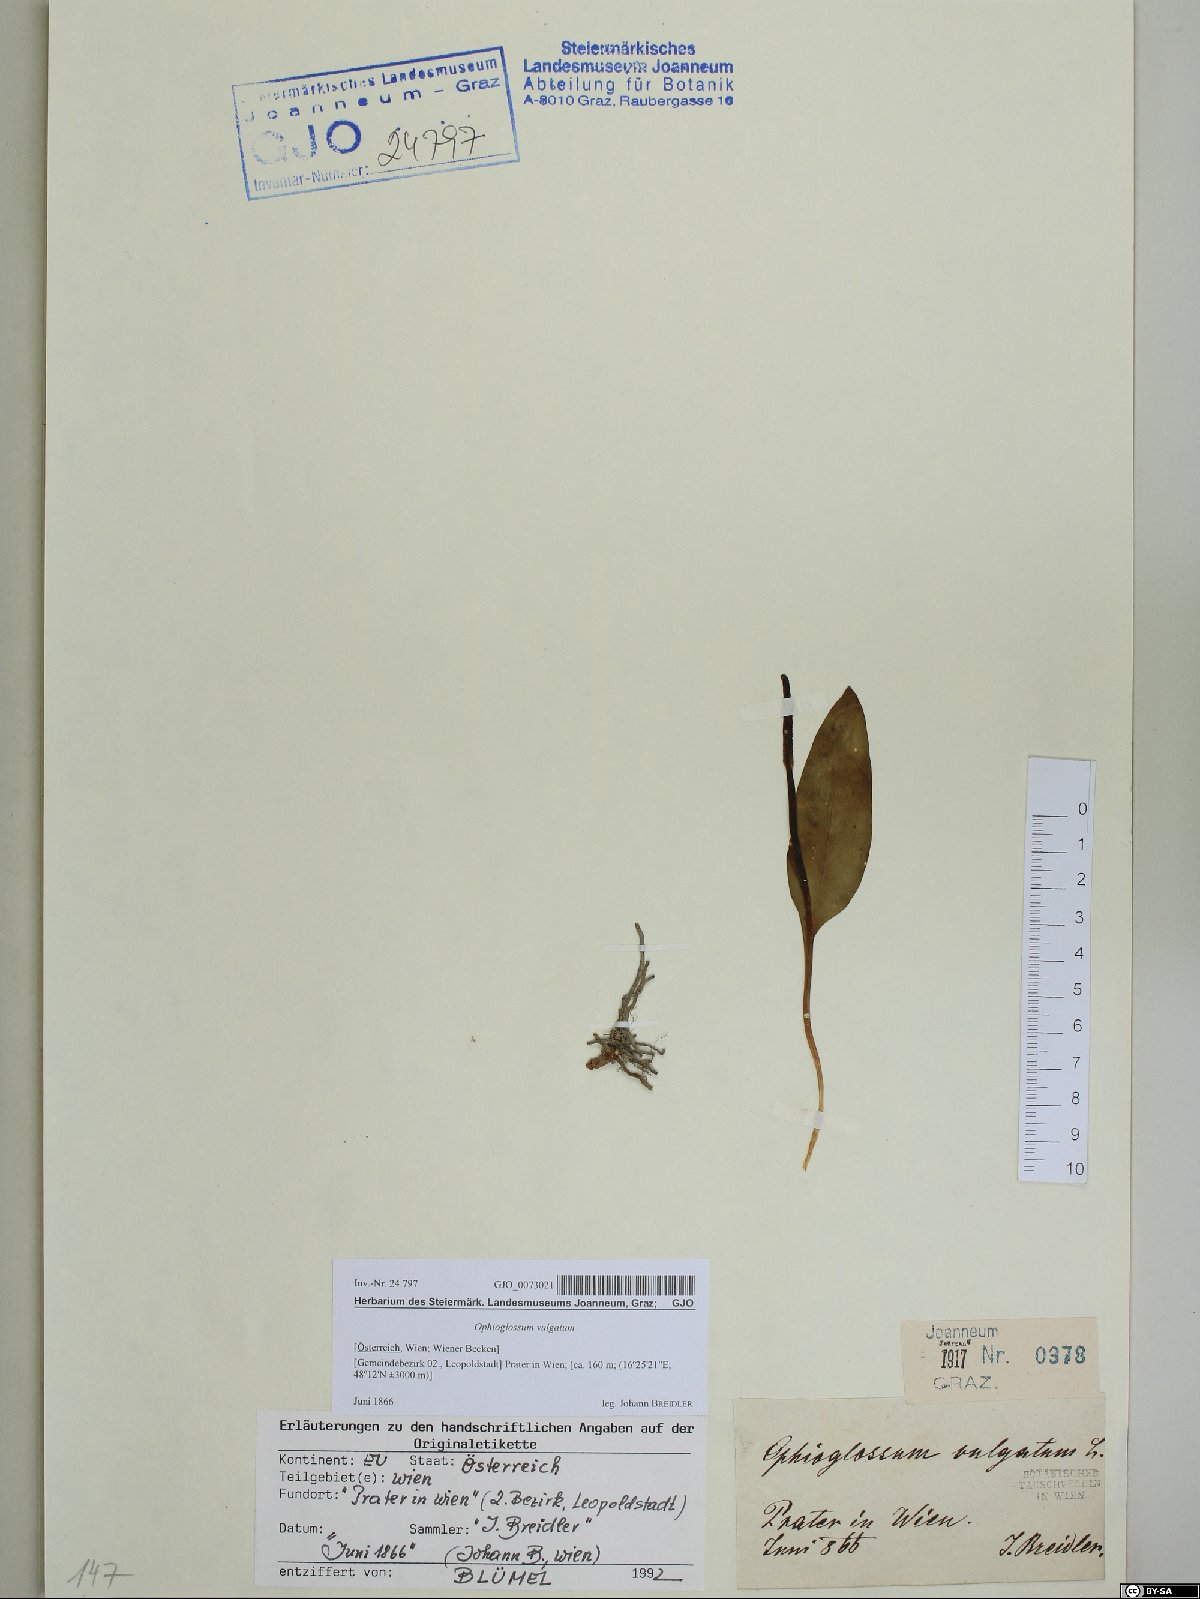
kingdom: Plantae
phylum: Tracheophyta
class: Polypodiopsida
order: Ophioglossales
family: Ophioglossaceae
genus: Ophioglossum
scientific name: Ophioglossum vulgatum
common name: Adder's-tongue
